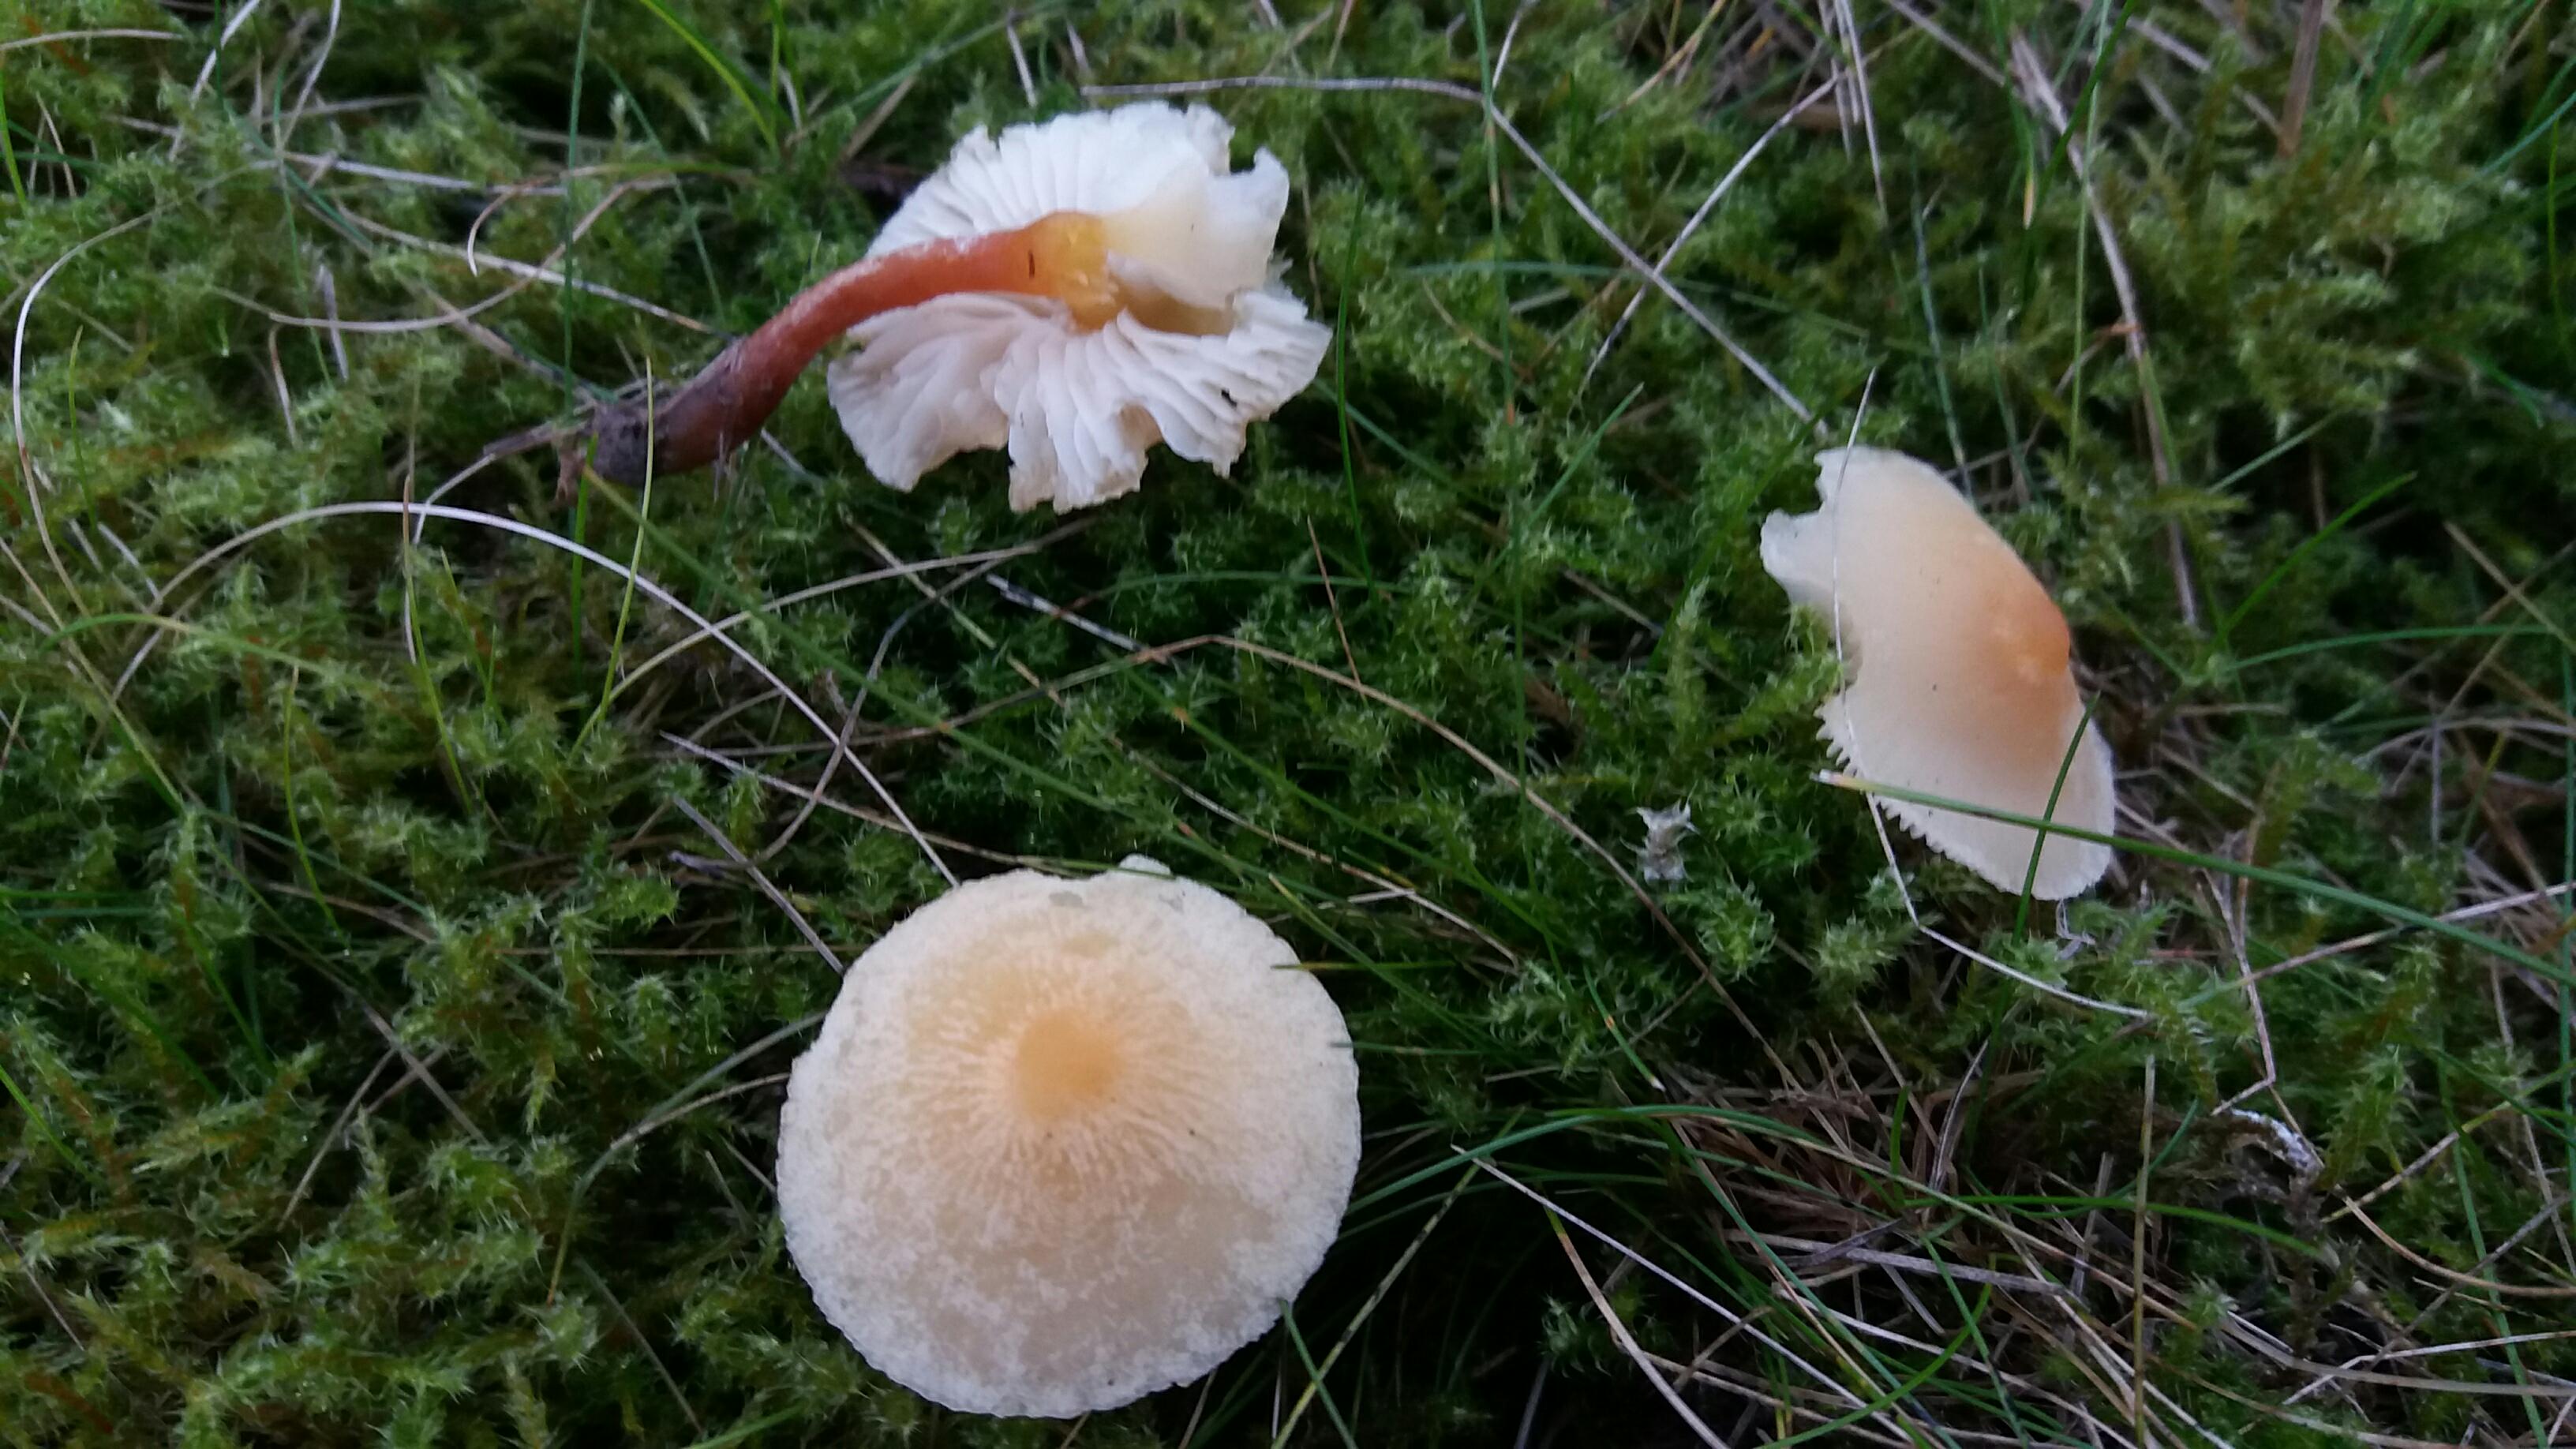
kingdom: Fungi
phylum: Basidiomycota
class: Agaricomycetes
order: Agaricales
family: Tricholomataceae
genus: Cystoderma
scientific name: Cystoderma amianthinum
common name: okkergul grynhat
